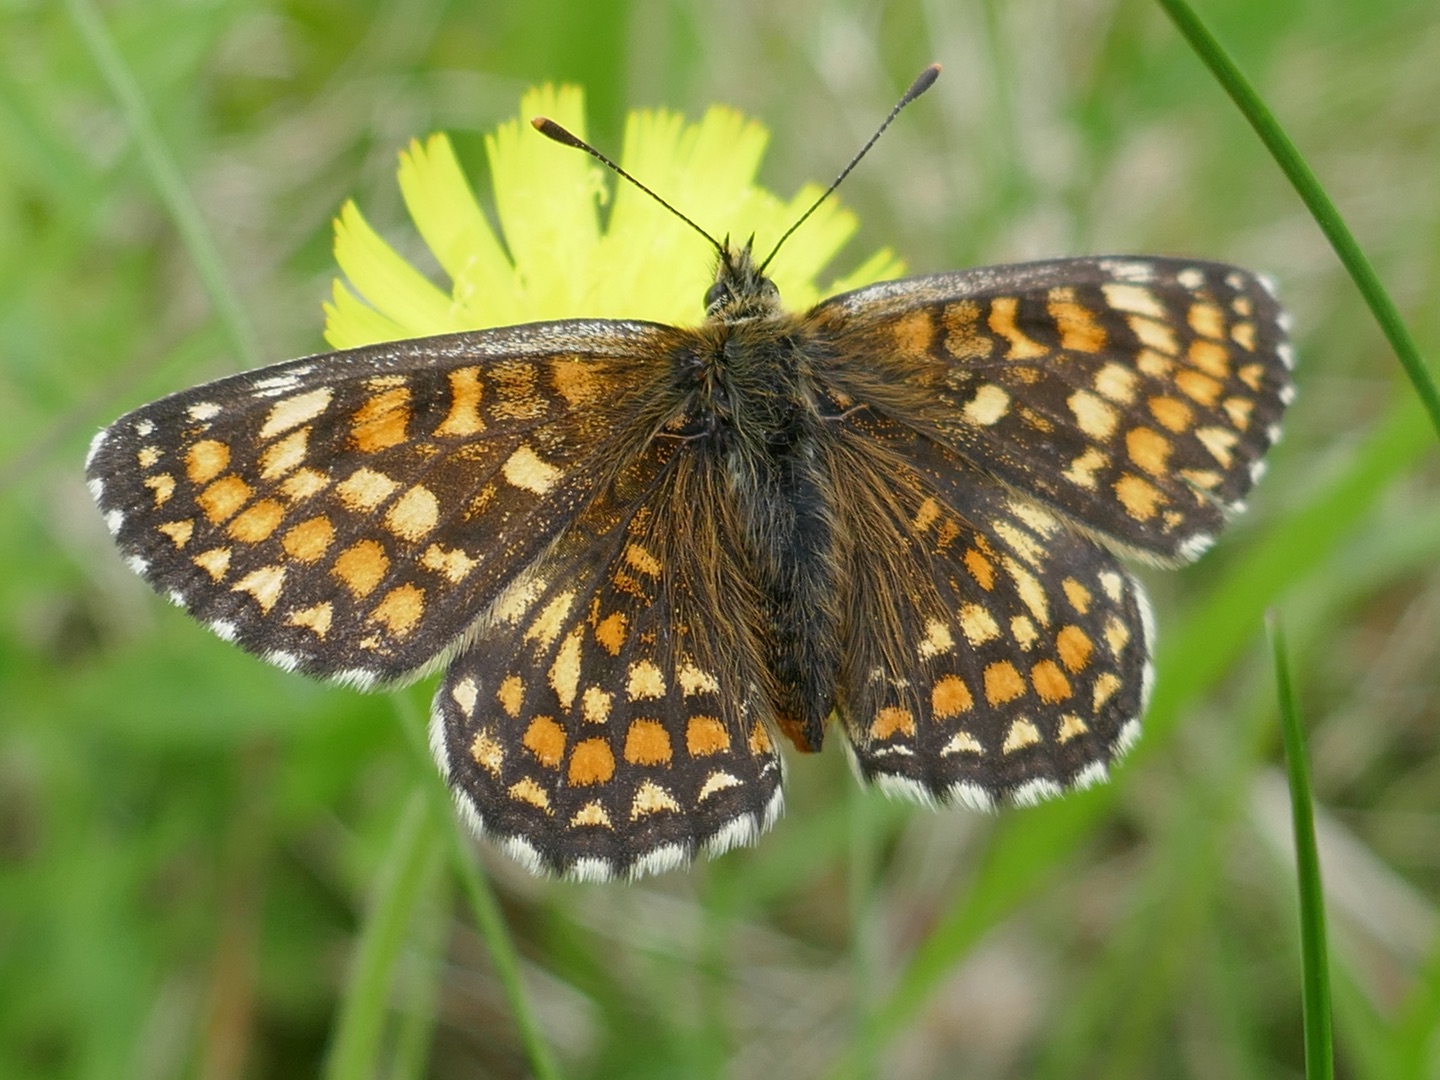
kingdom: Animalia
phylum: Arthropoda
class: Insecta
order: Lepidoptera
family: Nymphalidae
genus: Mellicta
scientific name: Mellicta athalia
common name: Brun pletvinge
